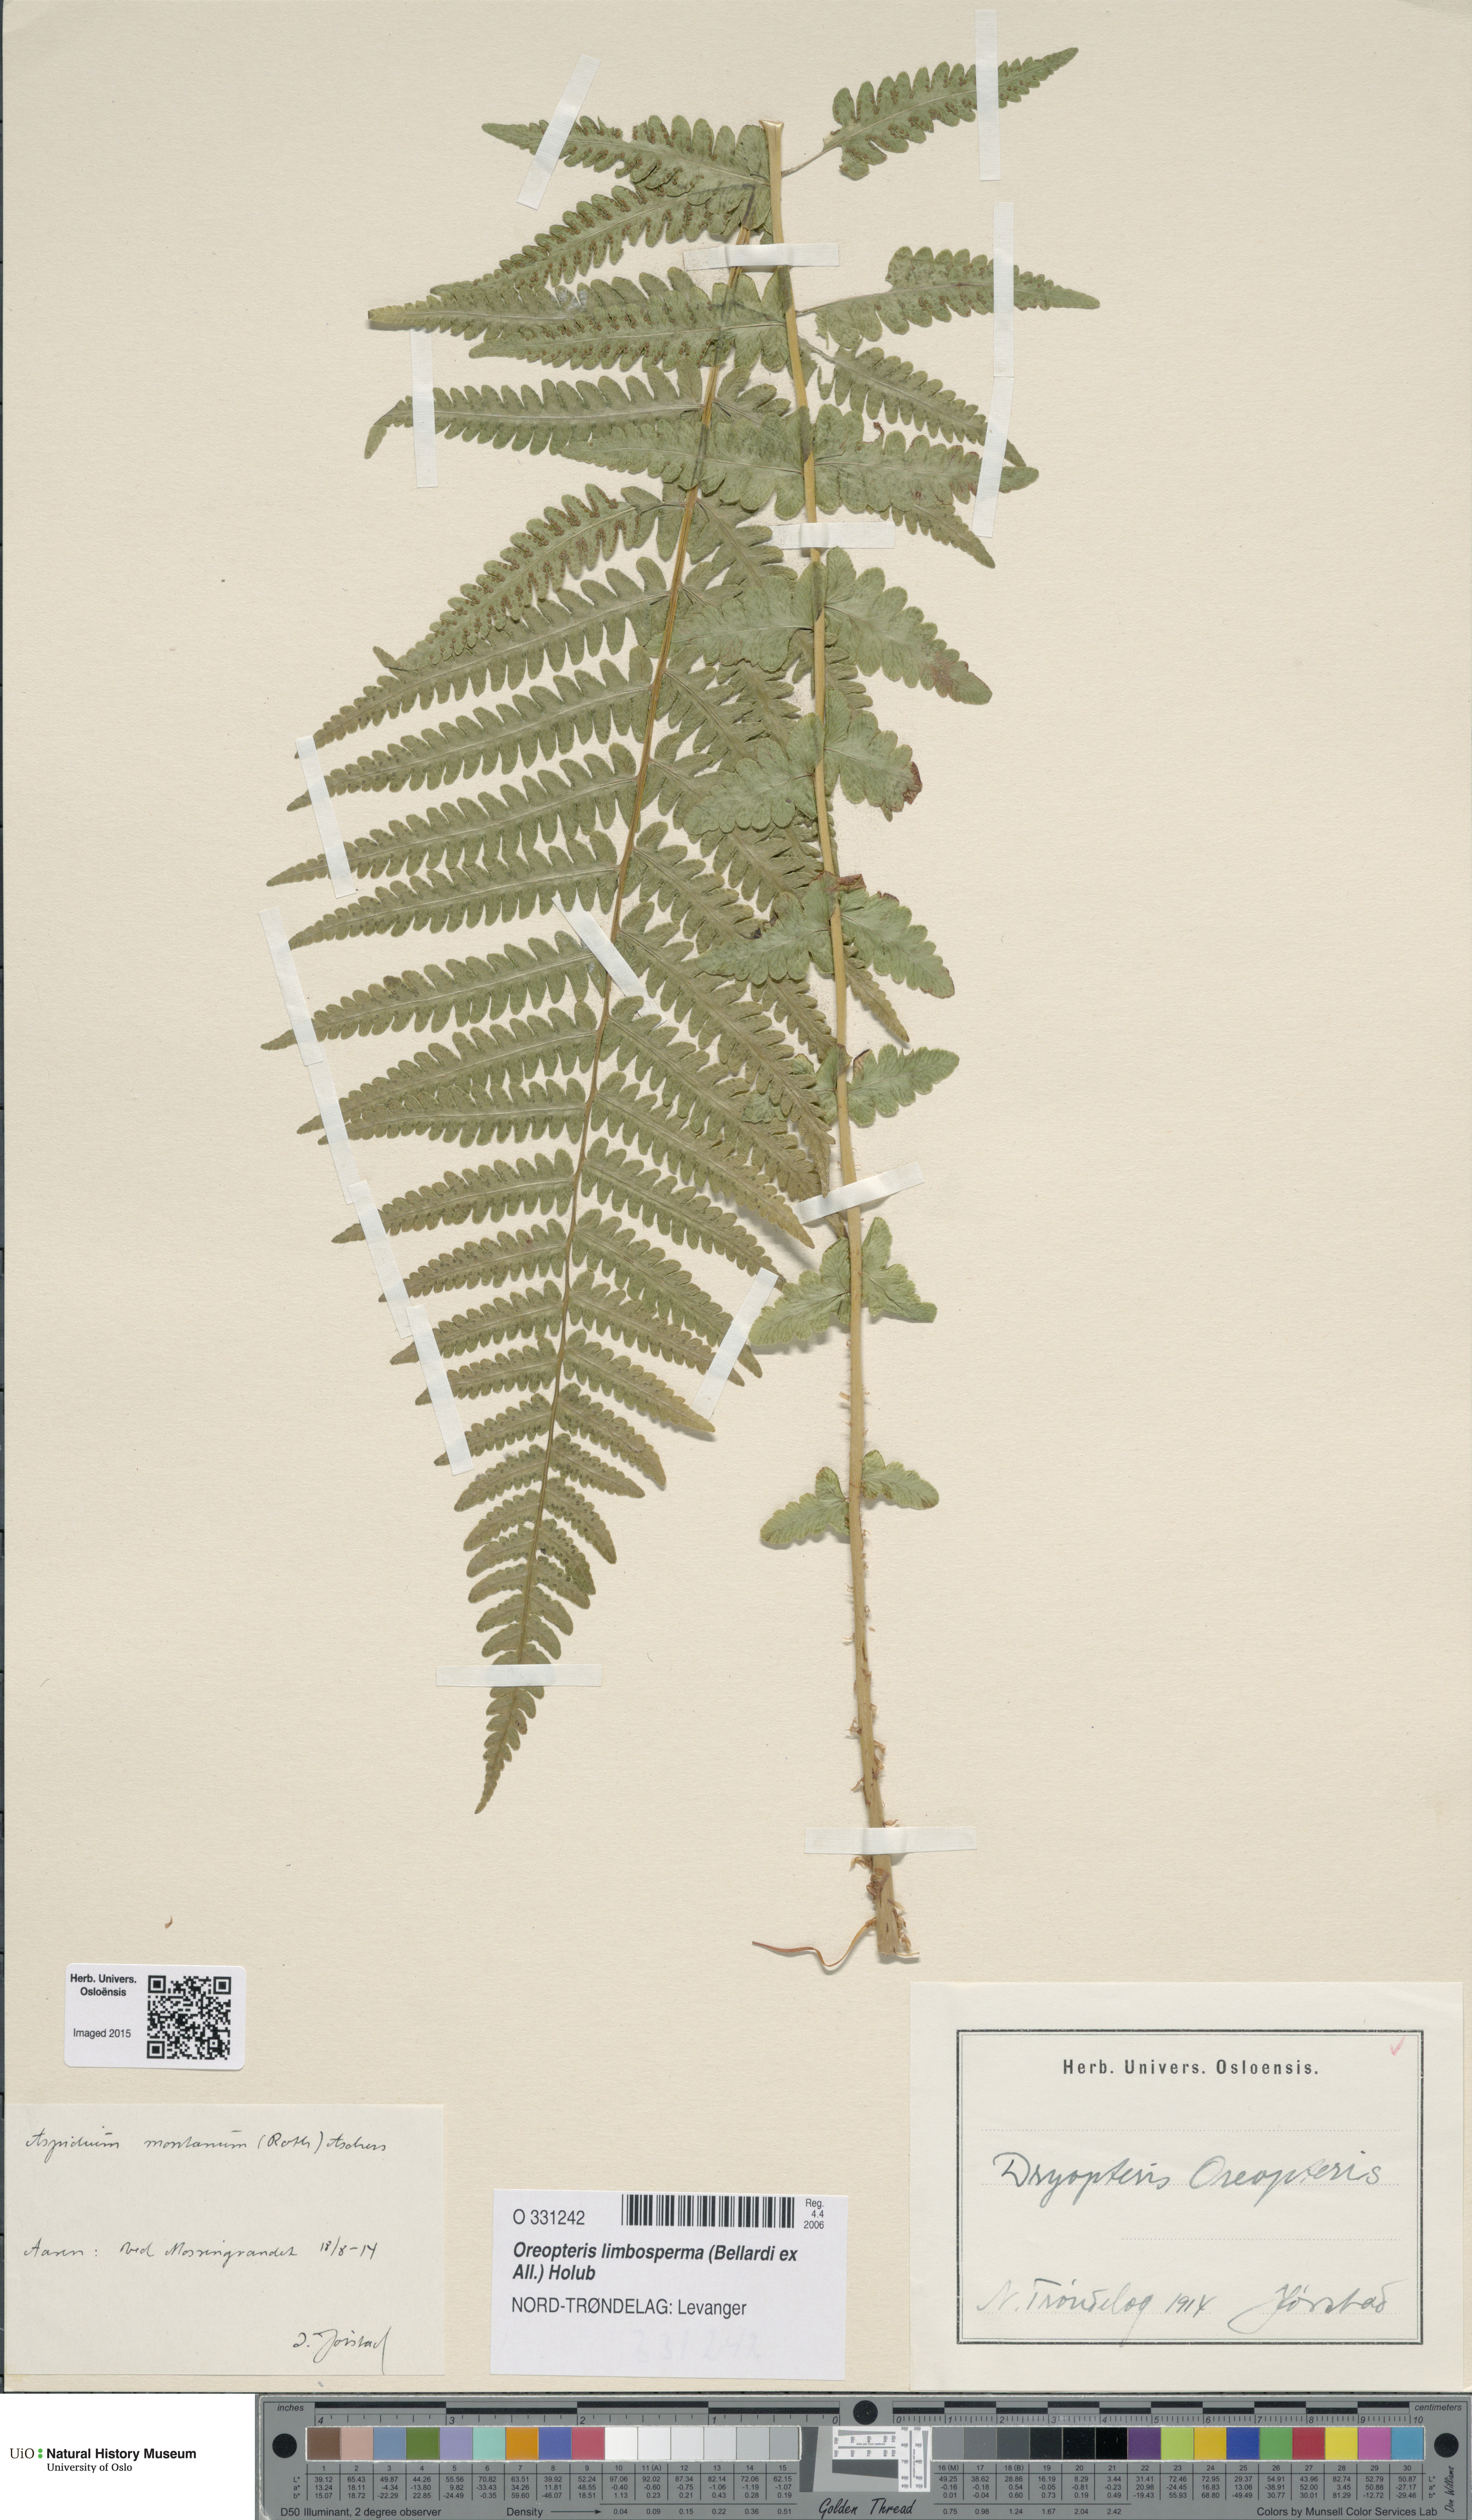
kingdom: Plantae
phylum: Tracheophyta
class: Polypodiopsida
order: Polypodiales
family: Thelypteridaceae
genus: Oreopteris
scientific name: Oreopteris limbosperma
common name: Lemon-scented fern
